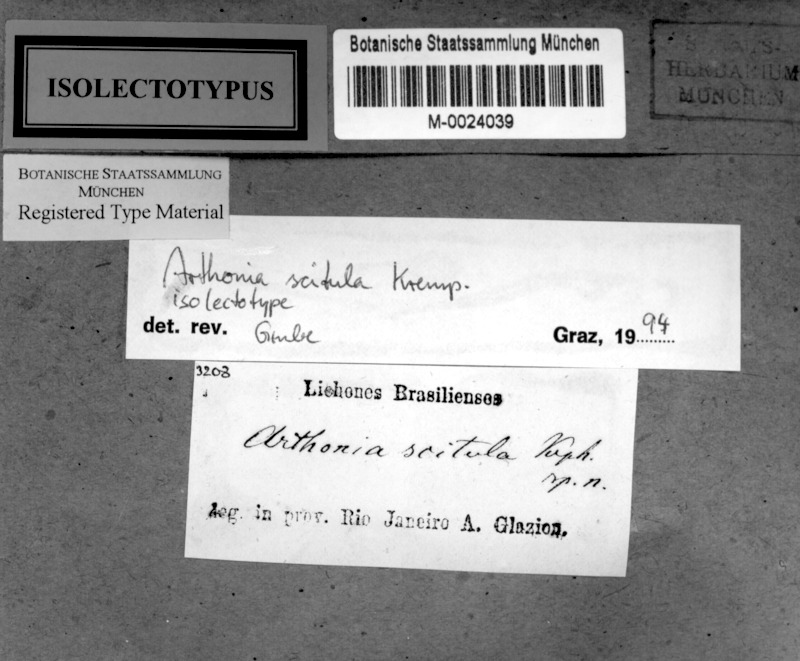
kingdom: Fungi
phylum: Ascomycota
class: Arthoniomycetes
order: Arthoniales
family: Arthoniaceae
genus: Arthonia
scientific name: Arthonia
